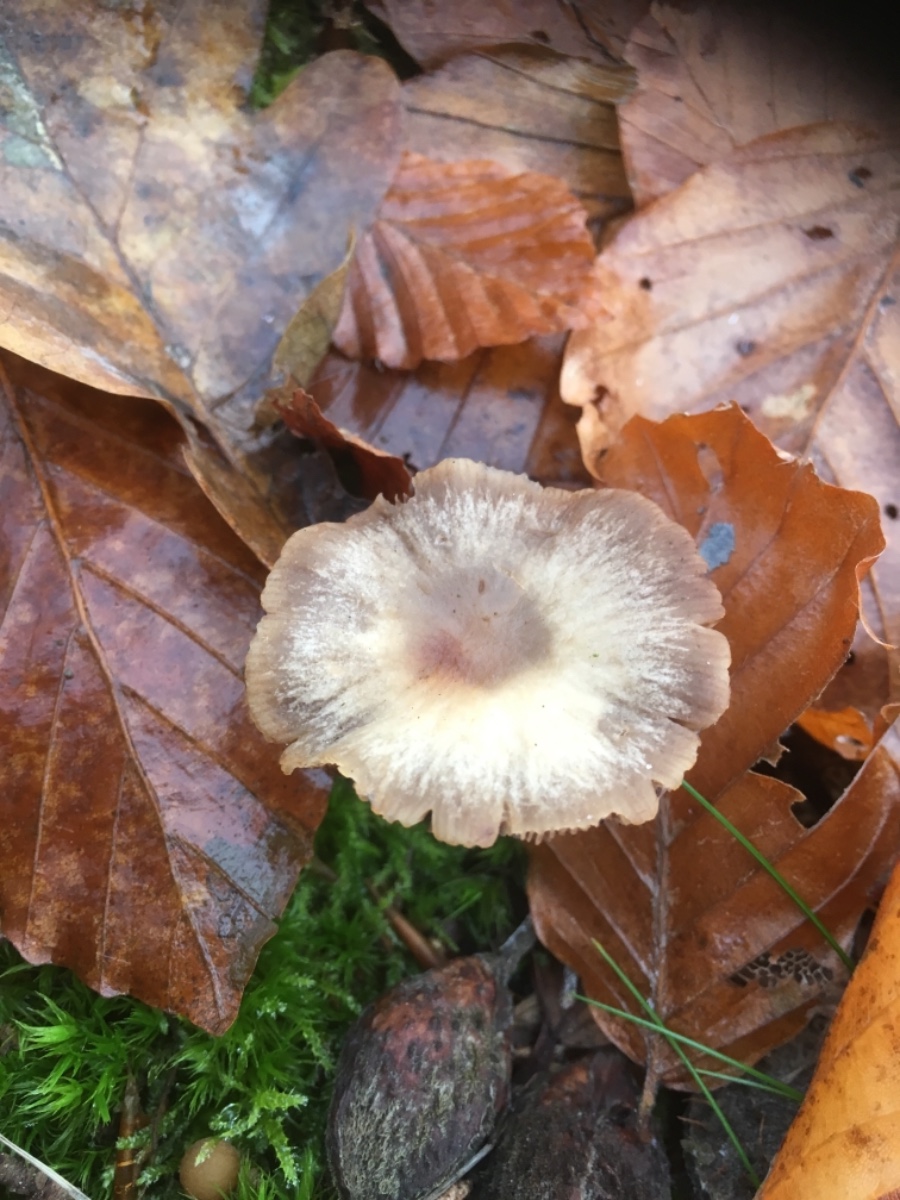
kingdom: Fungi
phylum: Basidiomycota
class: Agaricomycetes
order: Agaricales
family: Psathyrellaceae
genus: Psathyrella
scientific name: Psathyrella
